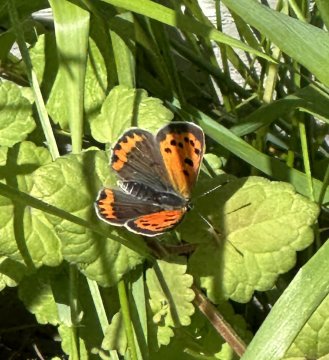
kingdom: Animalia
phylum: Arthropoda
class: Insecta
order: Lepidoptera
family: Lycaenidae
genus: Lycaena
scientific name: Lycaena phlaeas
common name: American Copper
